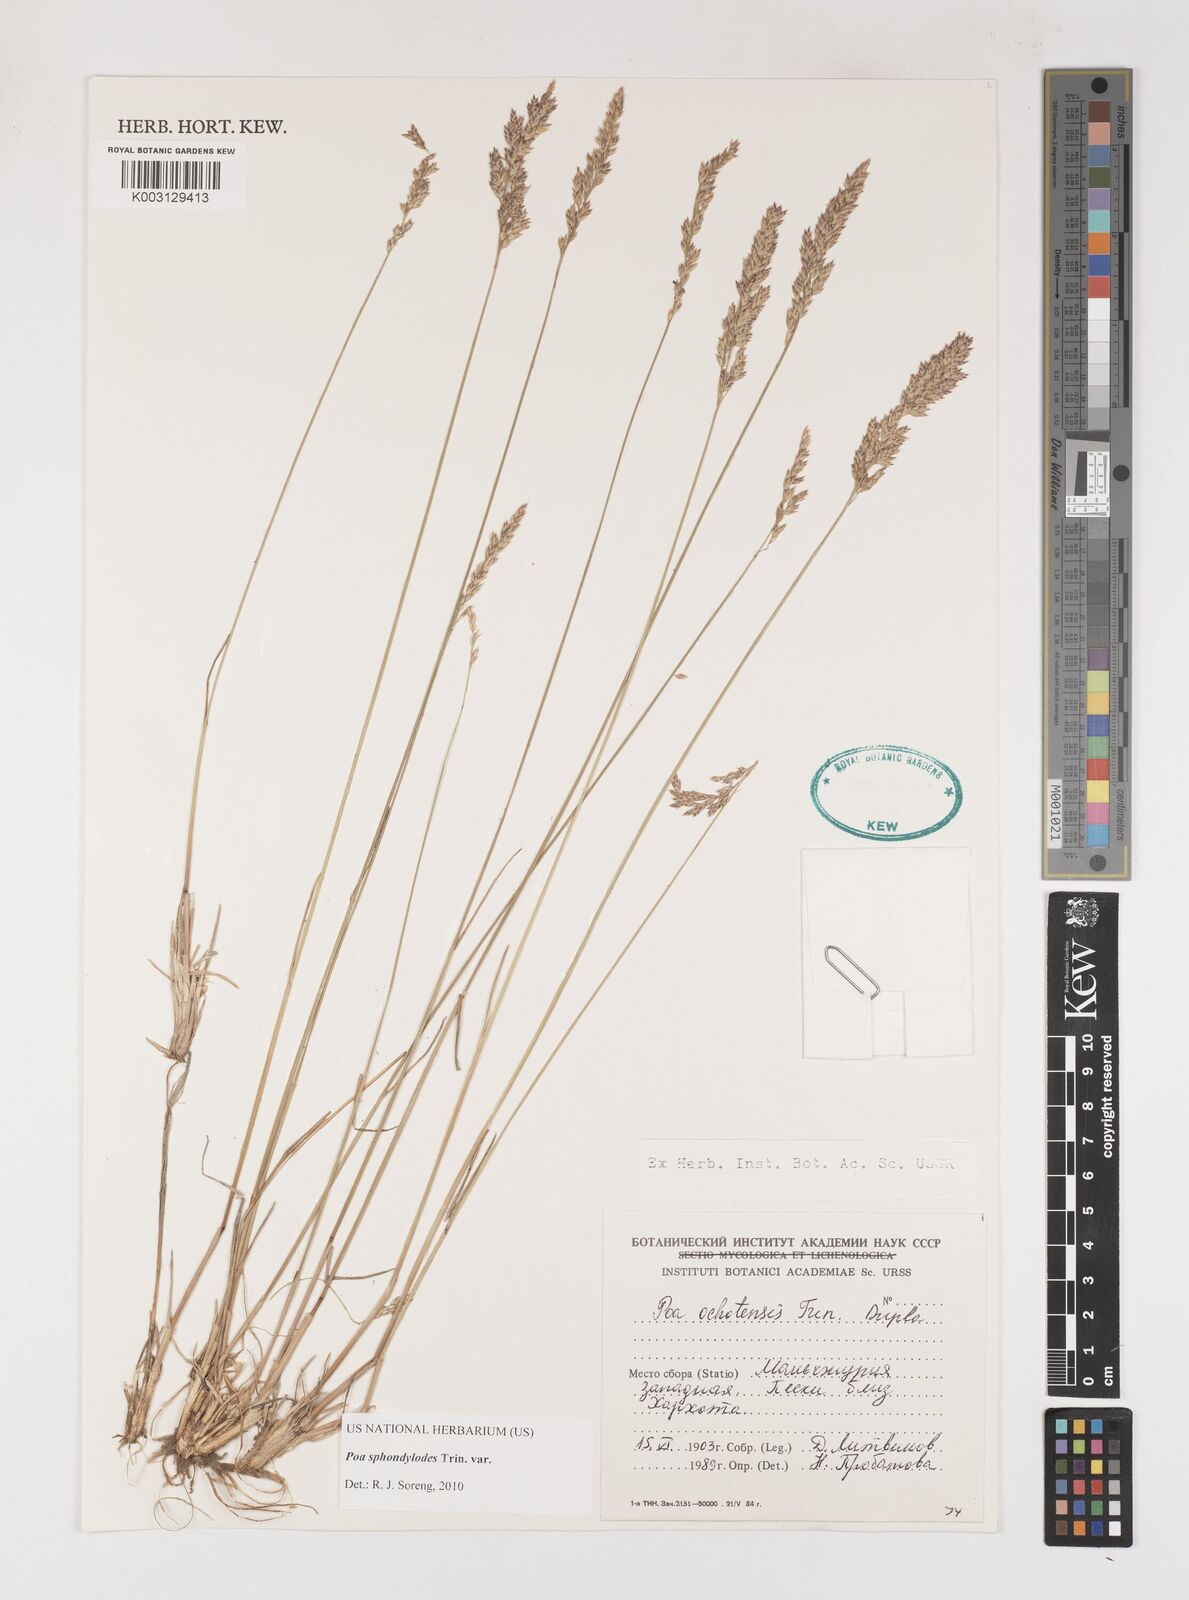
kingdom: Plantae
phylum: Tracheophyta
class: Liliopsida
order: Poales
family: Poaceae
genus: Poa
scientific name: Poa versicolor
